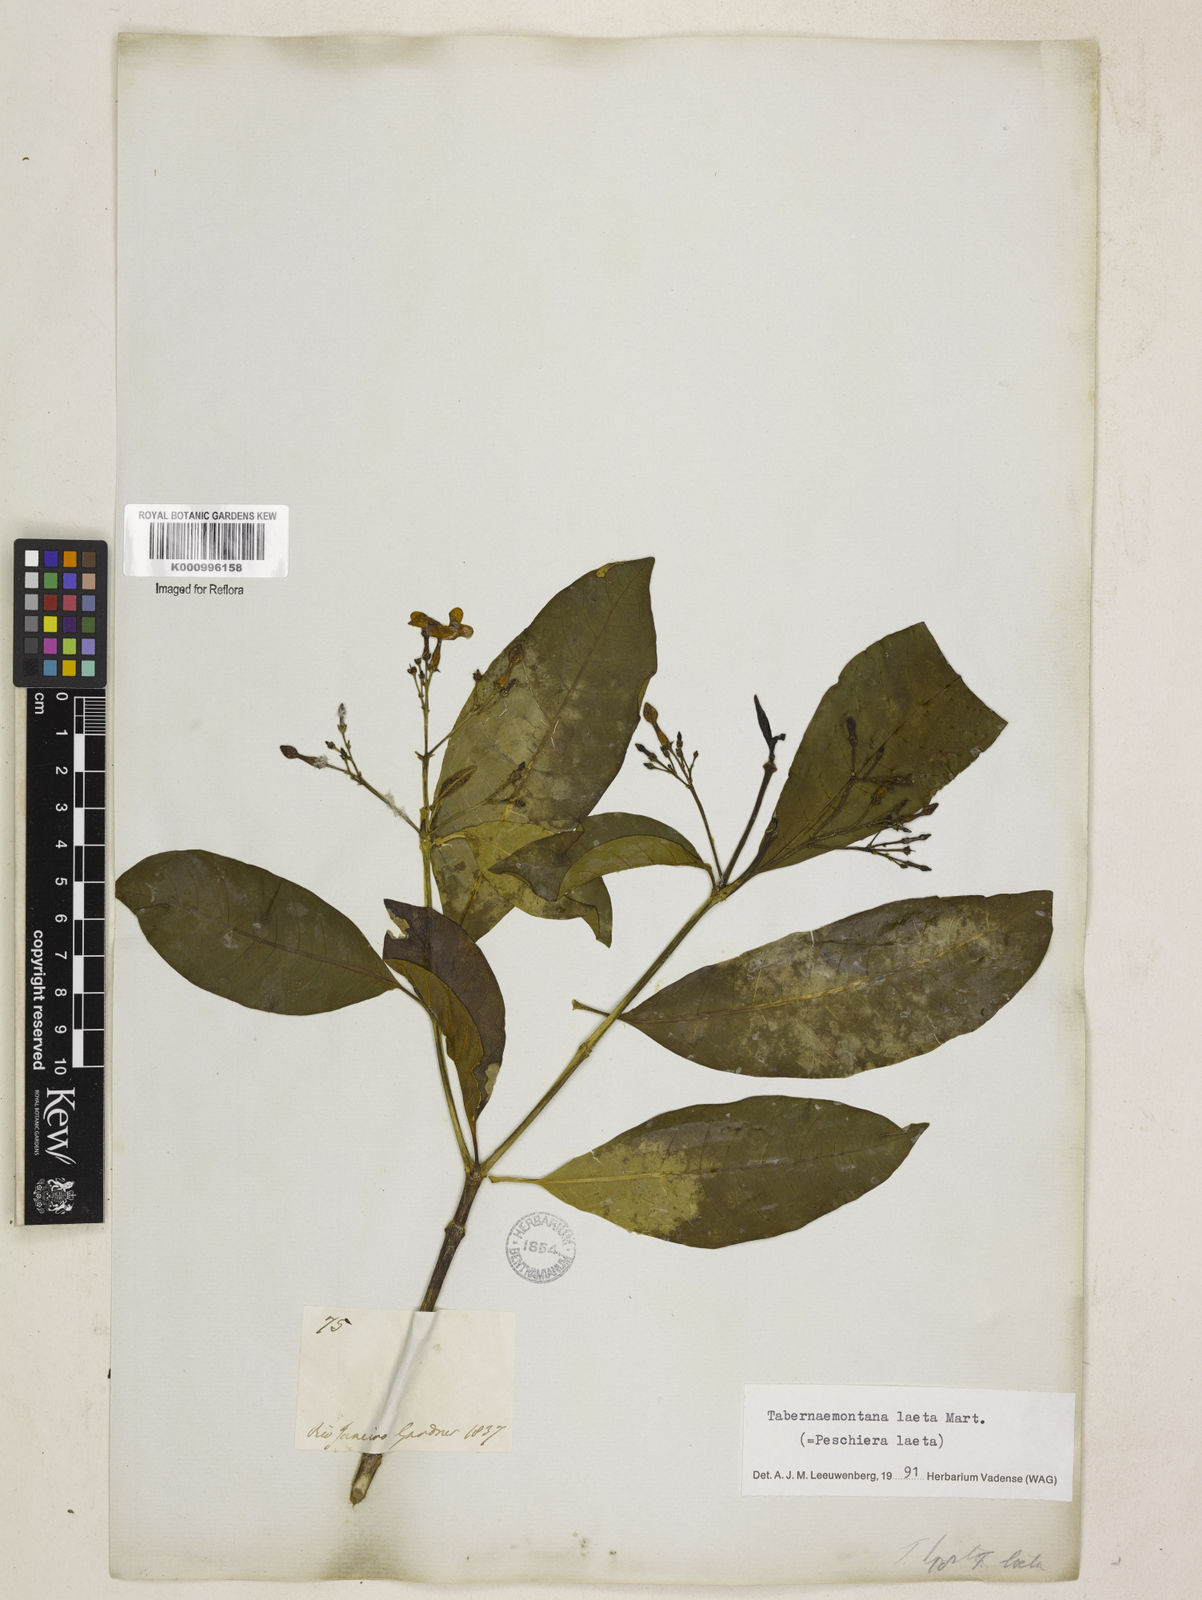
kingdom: Plantae
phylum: Tracheophyta
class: Magnoliopsida
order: Gentianales
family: Apocynaceae
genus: Tabernaemontana
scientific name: Tabernaemontana laeta
